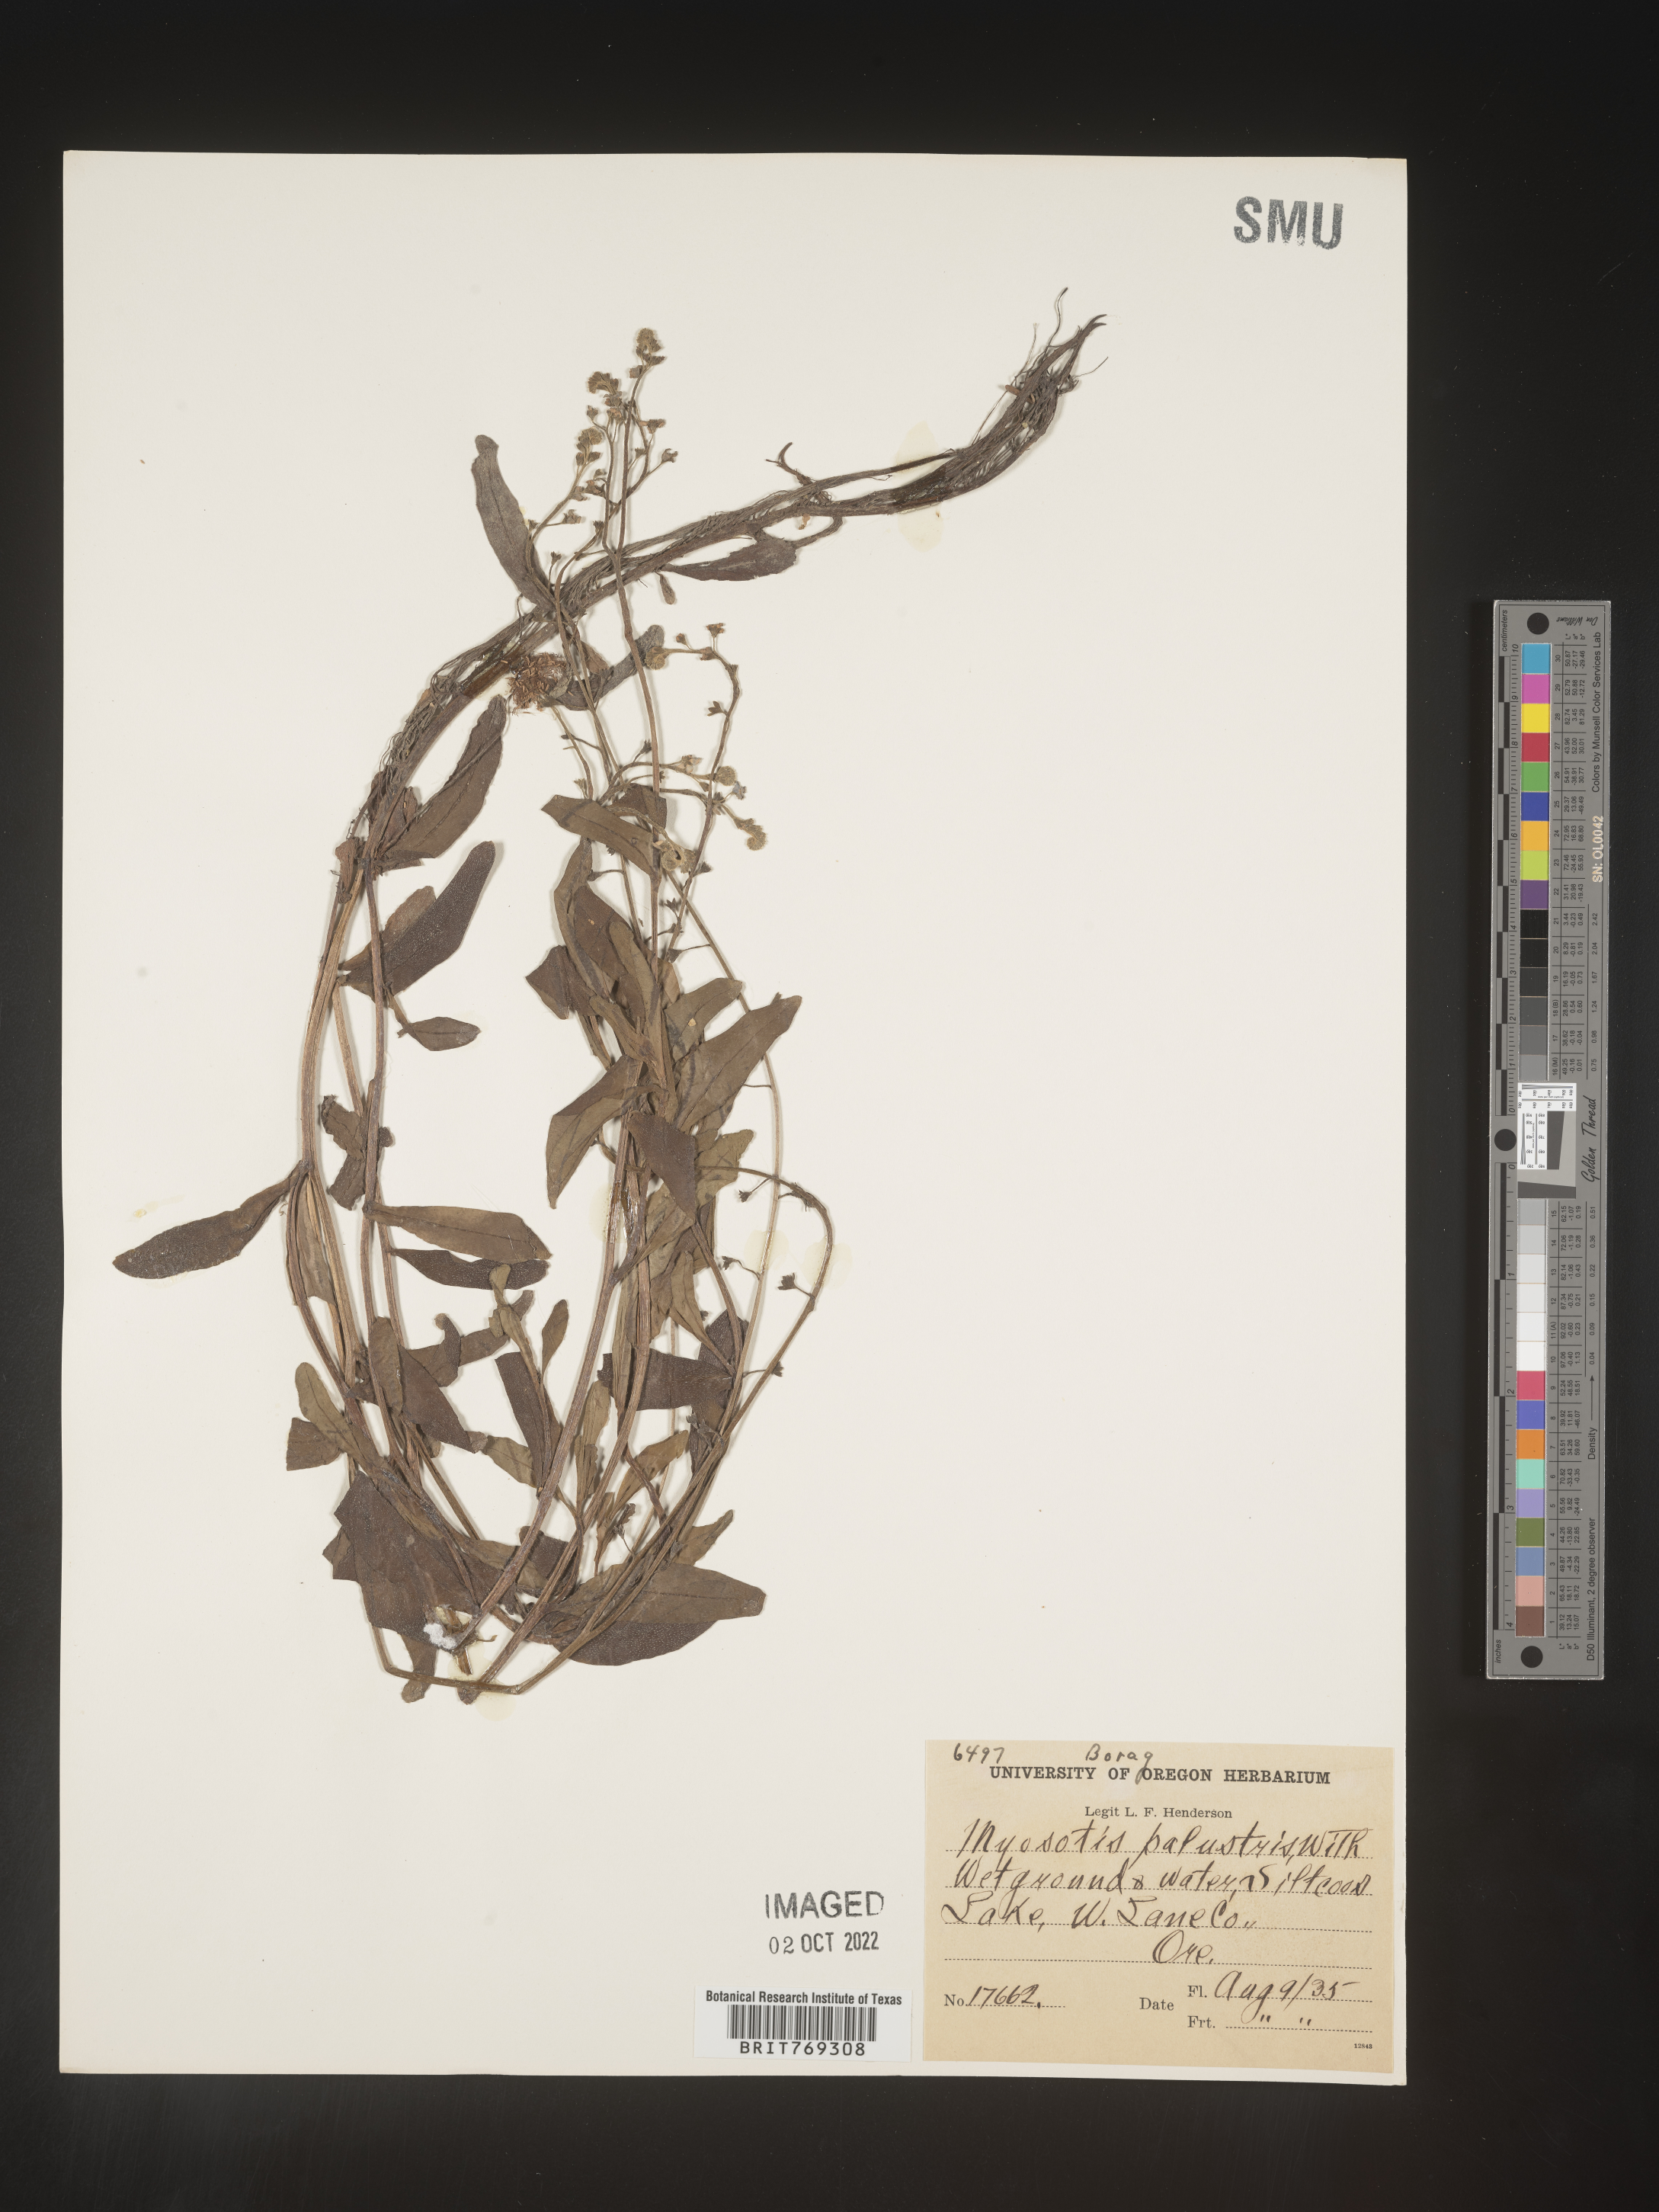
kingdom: Plantae
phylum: Tracheophyta
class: Magnoliopsida
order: Boraginales
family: Boraginaceae
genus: Myosotis
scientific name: Myosotis
